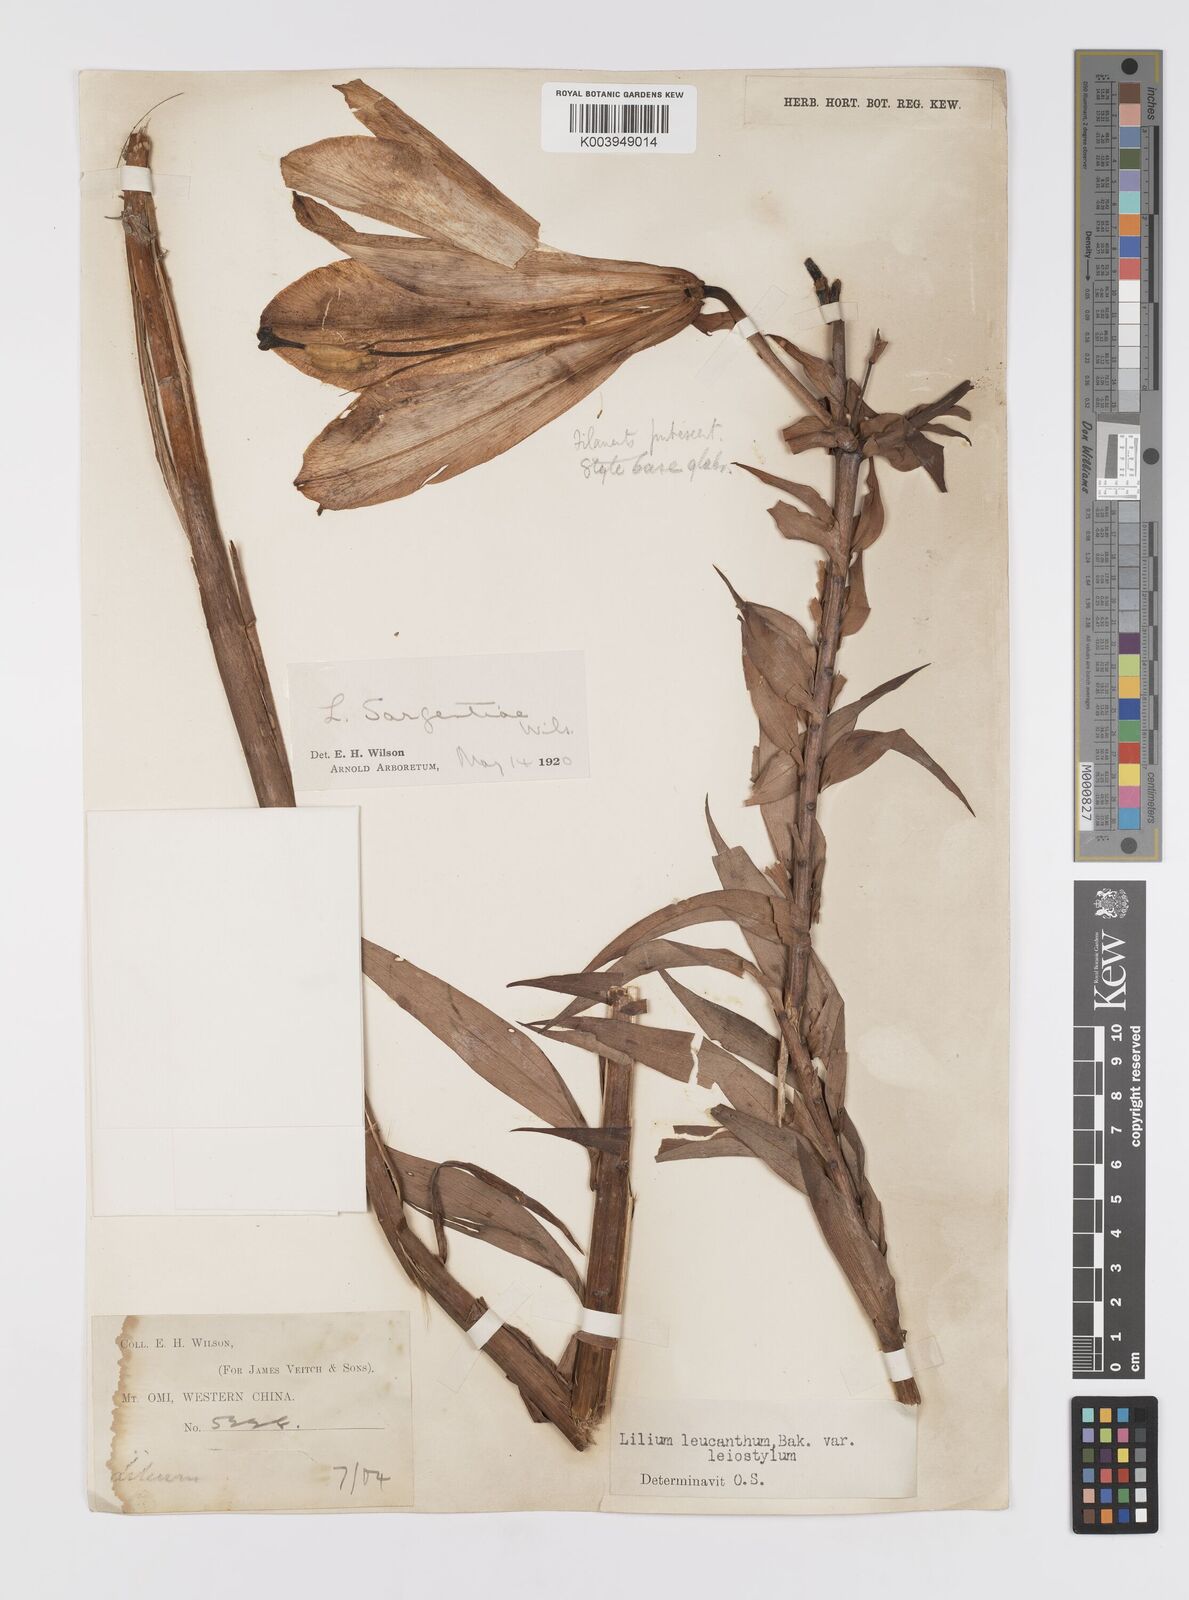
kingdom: Plantae
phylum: Tracheophyta
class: Liliopsida
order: Liliales
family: Liliaceae
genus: Lilium
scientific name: Lilium sargentiae
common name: Sargent lily
